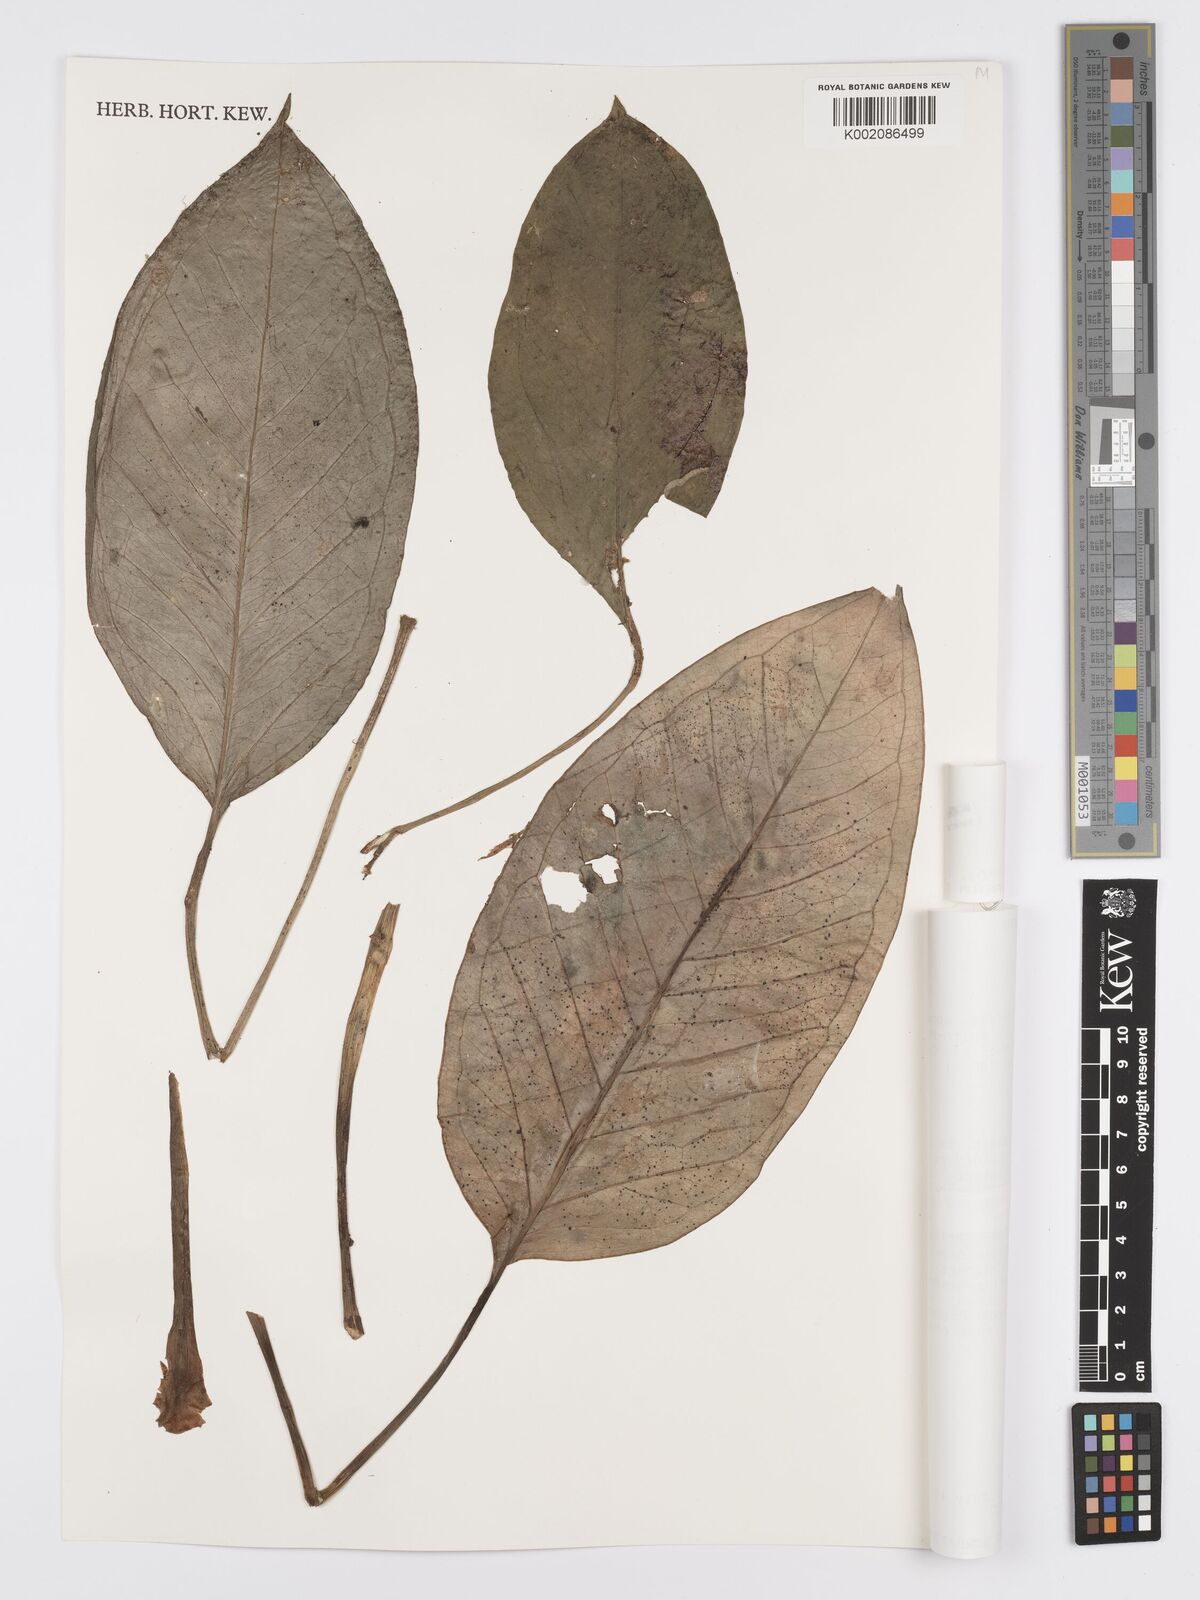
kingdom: Plantae
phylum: Tracheophyta
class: Liliopsida
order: Alismatales
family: Araceae
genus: Anthurium
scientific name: Anthurium michelii
